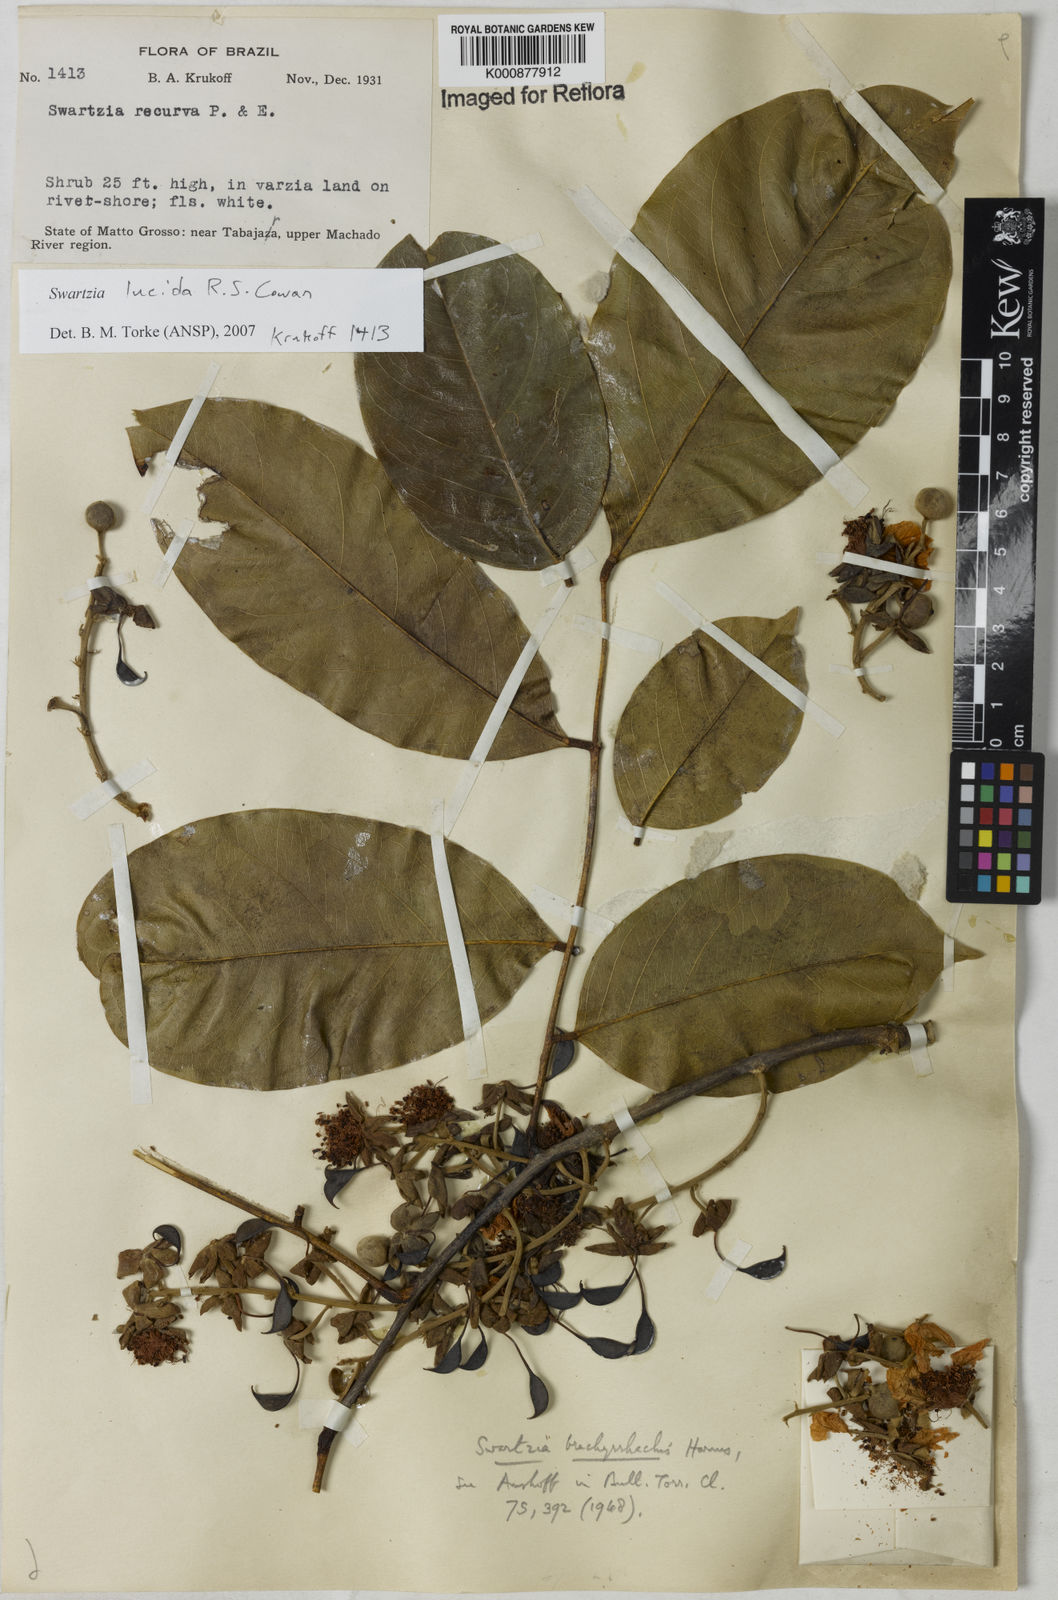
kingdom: Plantae
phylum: Tracheophyta
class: Magnoliopsida
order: Fabales
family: Fabaceae
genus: Swartzia
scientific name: Swartzia lucida
